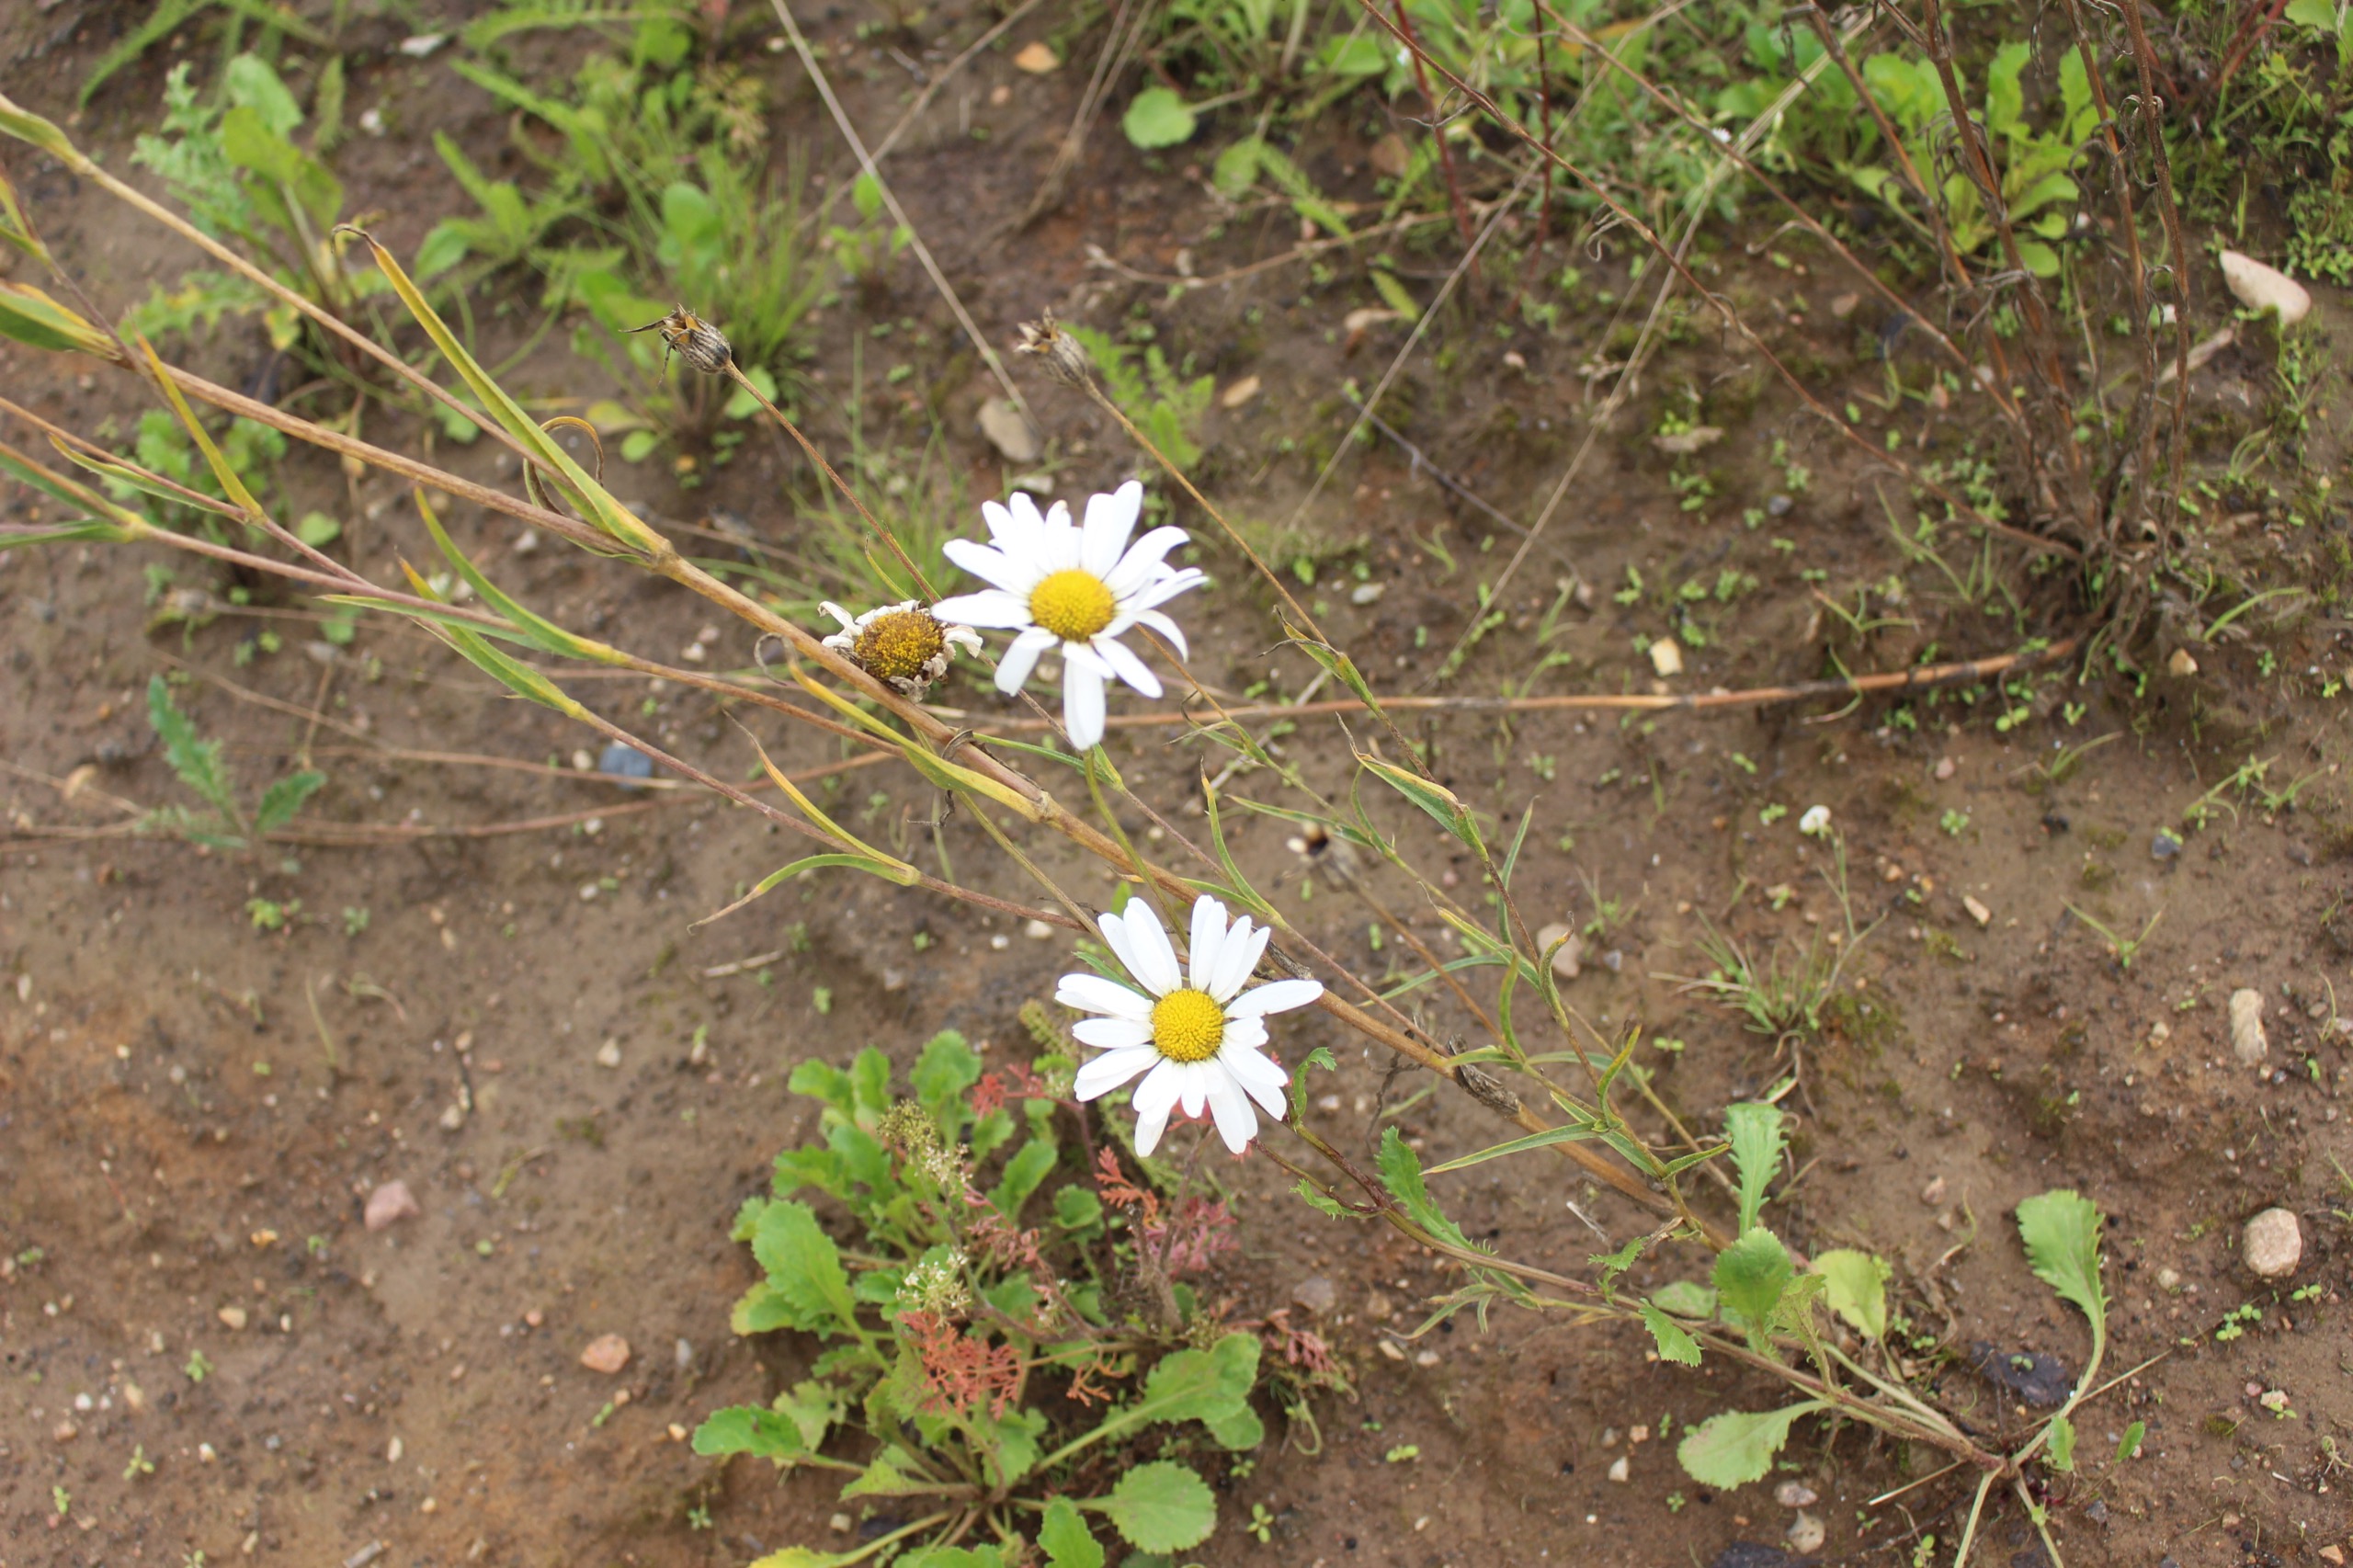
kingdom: Plantae
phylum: Tracheophyta
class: Magnoliopsida
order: Asterales
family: Asteraceae
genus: Leucanthemum
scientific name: Leucanthemum vulgare
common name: Hvid okseøje
